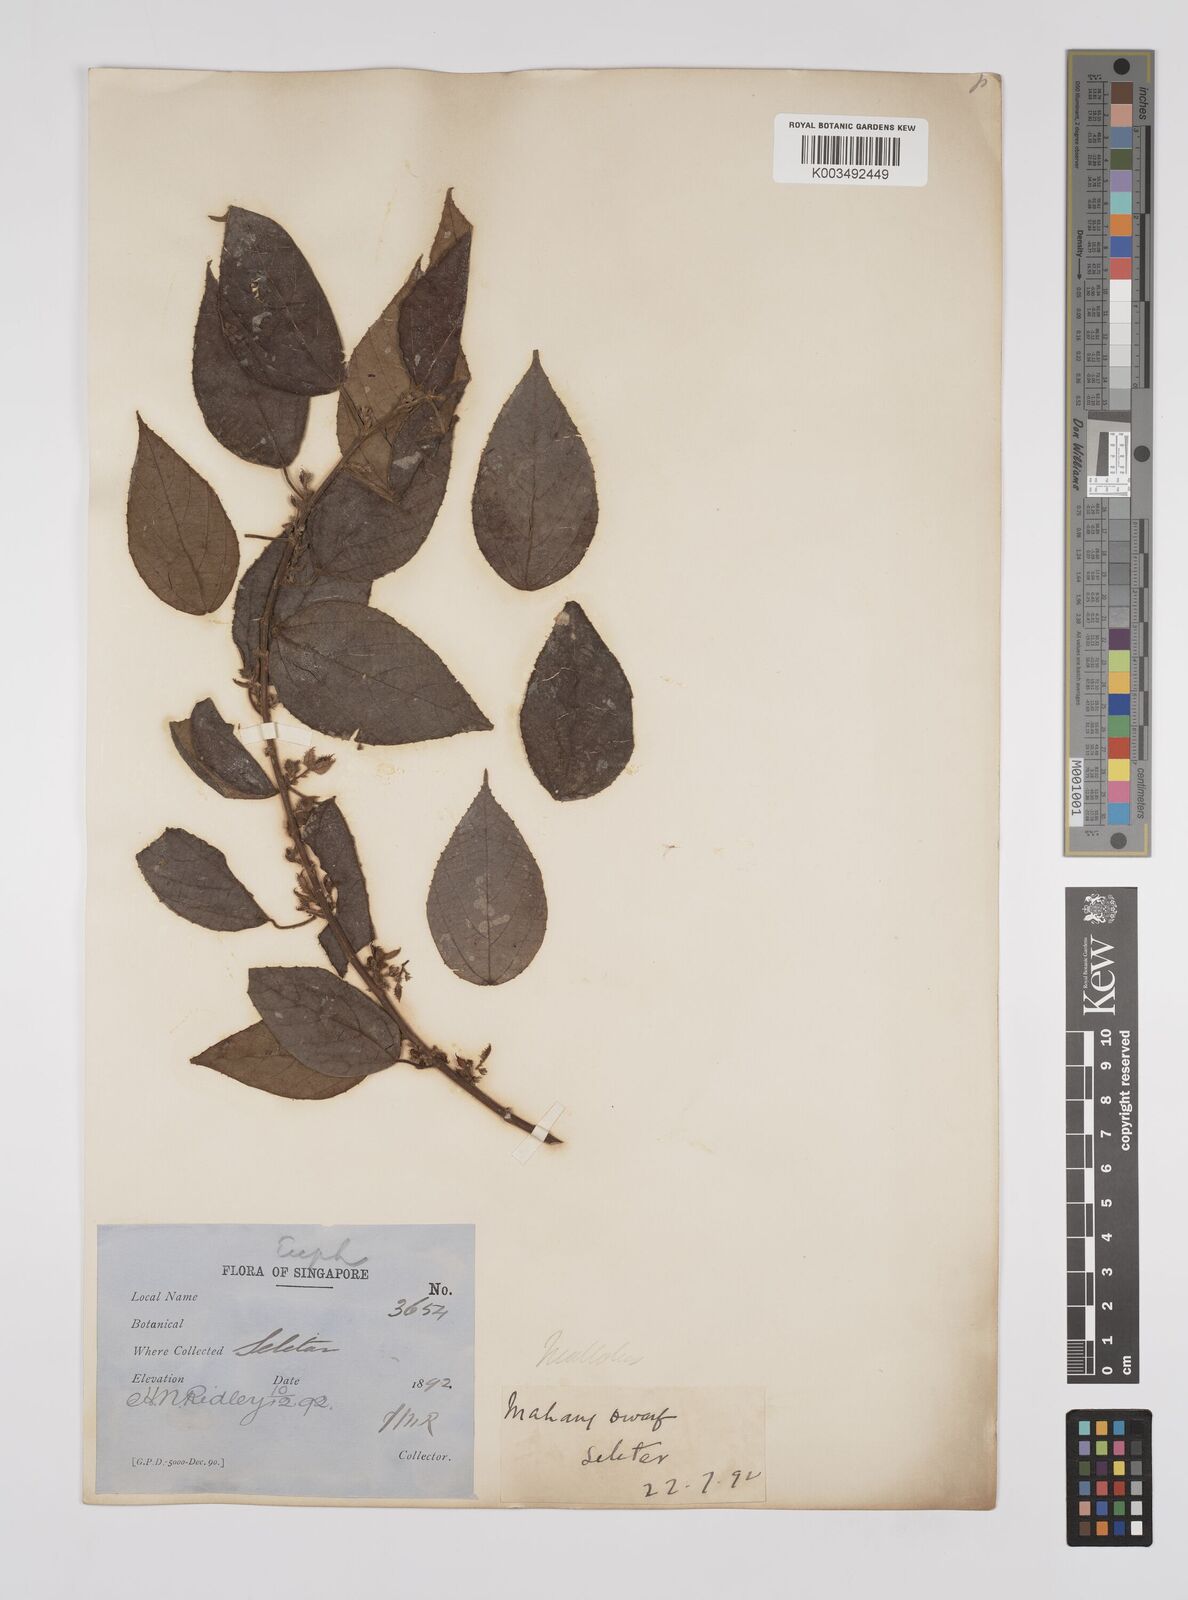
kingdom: Plantae
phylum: Tracheophyta
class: Magnoliopsida
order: Malpighiales
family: Euphorbiaceae
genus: Macaranga
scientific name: Macaranga trichocarpa
